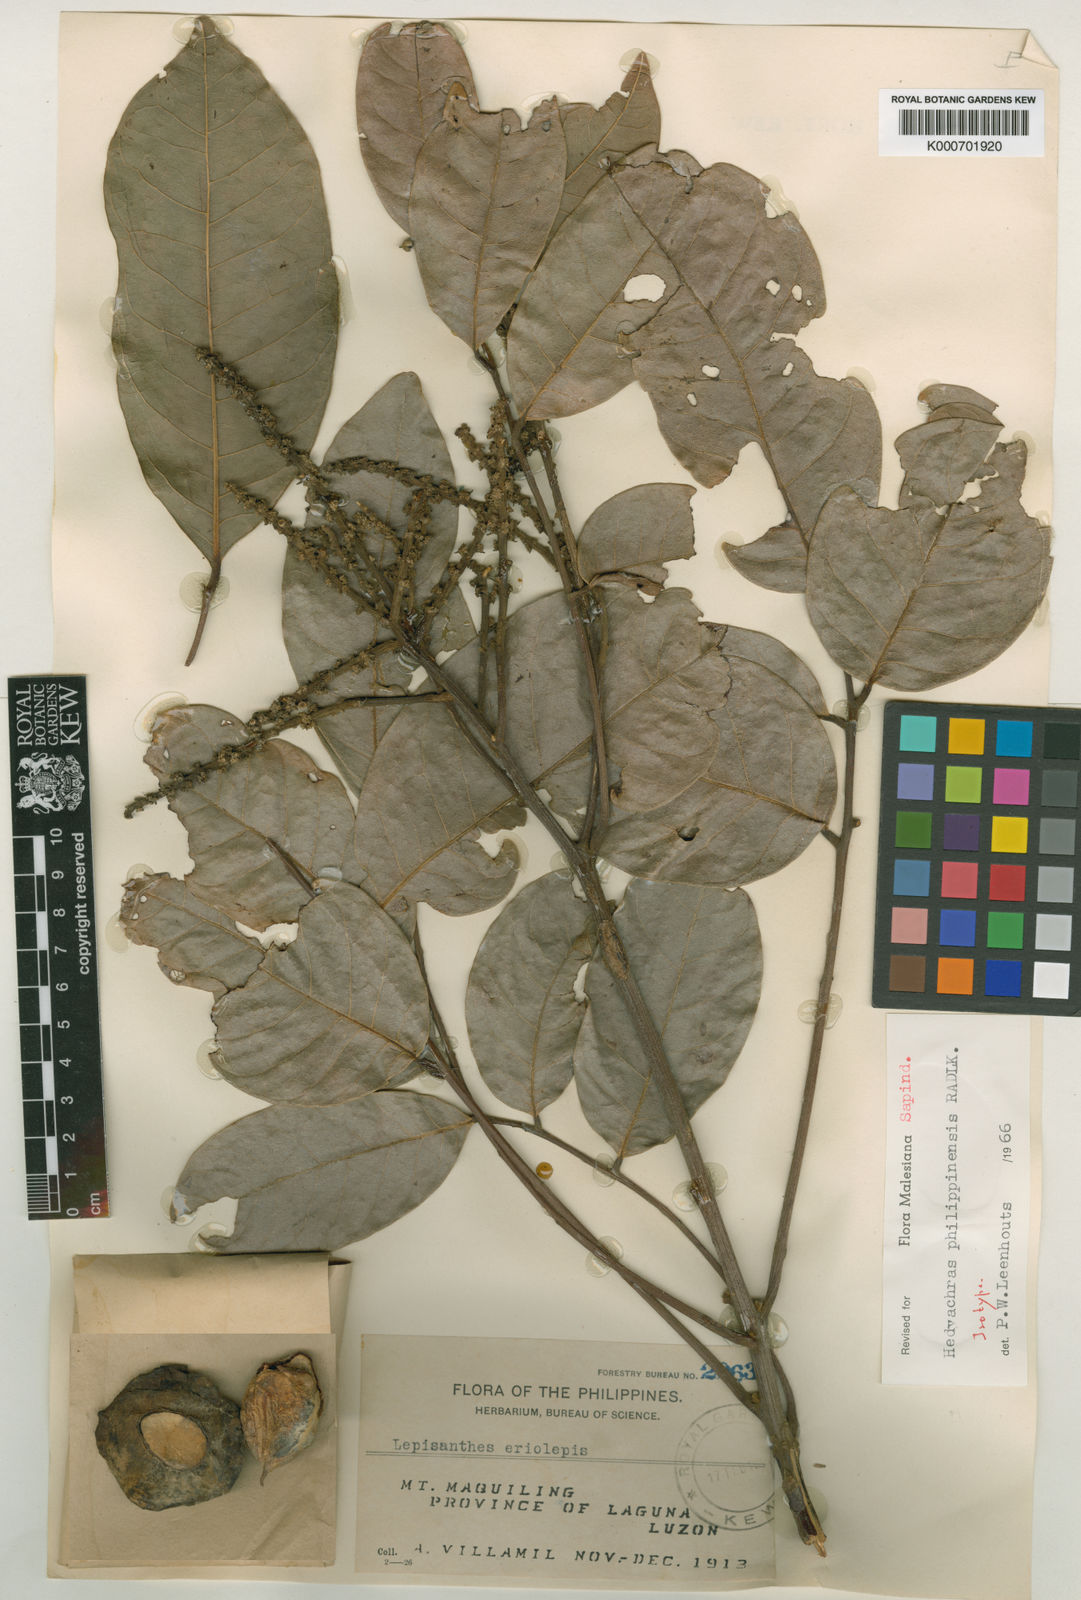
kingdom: Plantae
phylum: Tracheophyta
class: Magnoliopsida
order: Sapindales
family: Sapindaceae
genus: Glenniea
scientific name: Glenniea philippinensis
